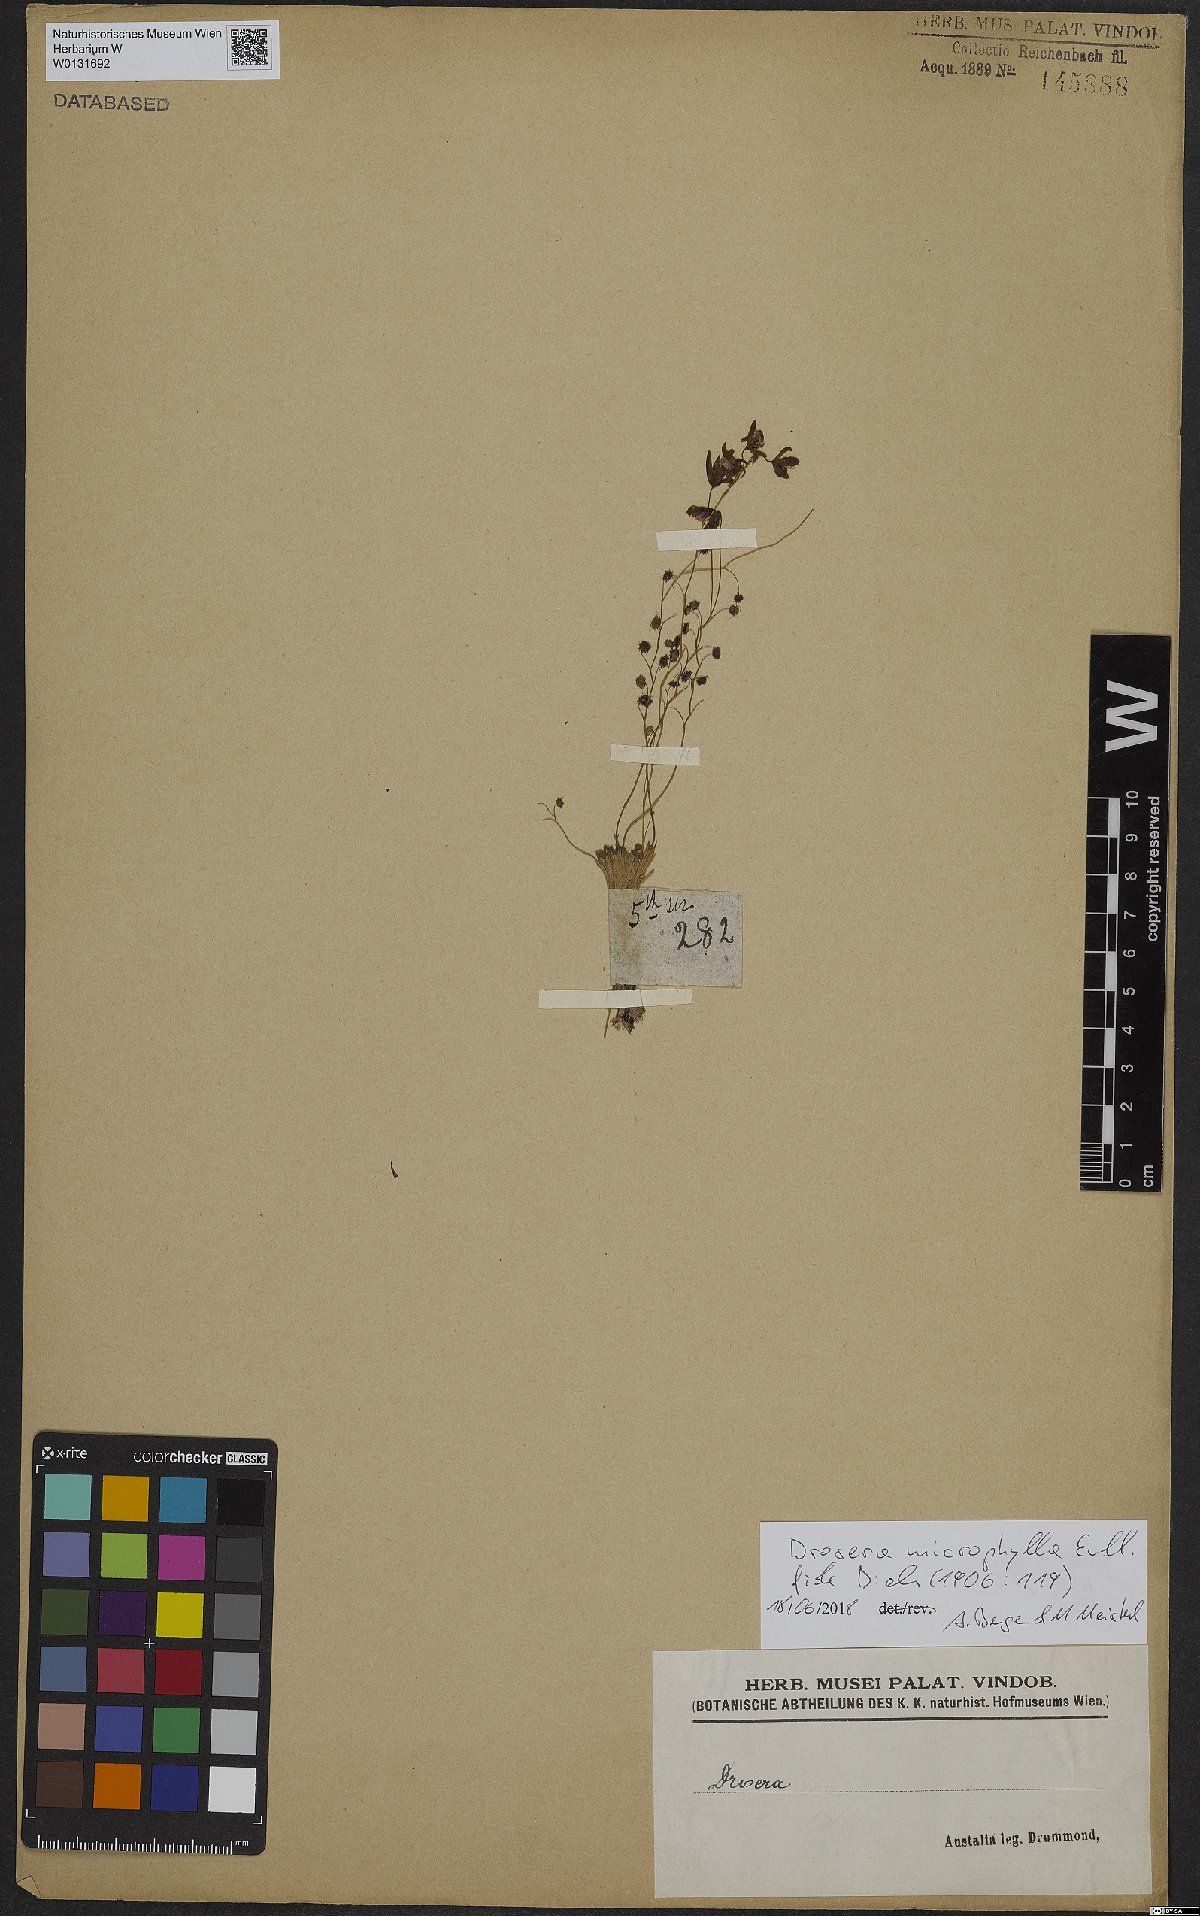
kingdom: Plantae
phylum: Tracheophyta
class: Magnoliopsida
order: Caryophyllales
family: Droseraceae
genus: Drosera
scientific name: Drosera microphylla
